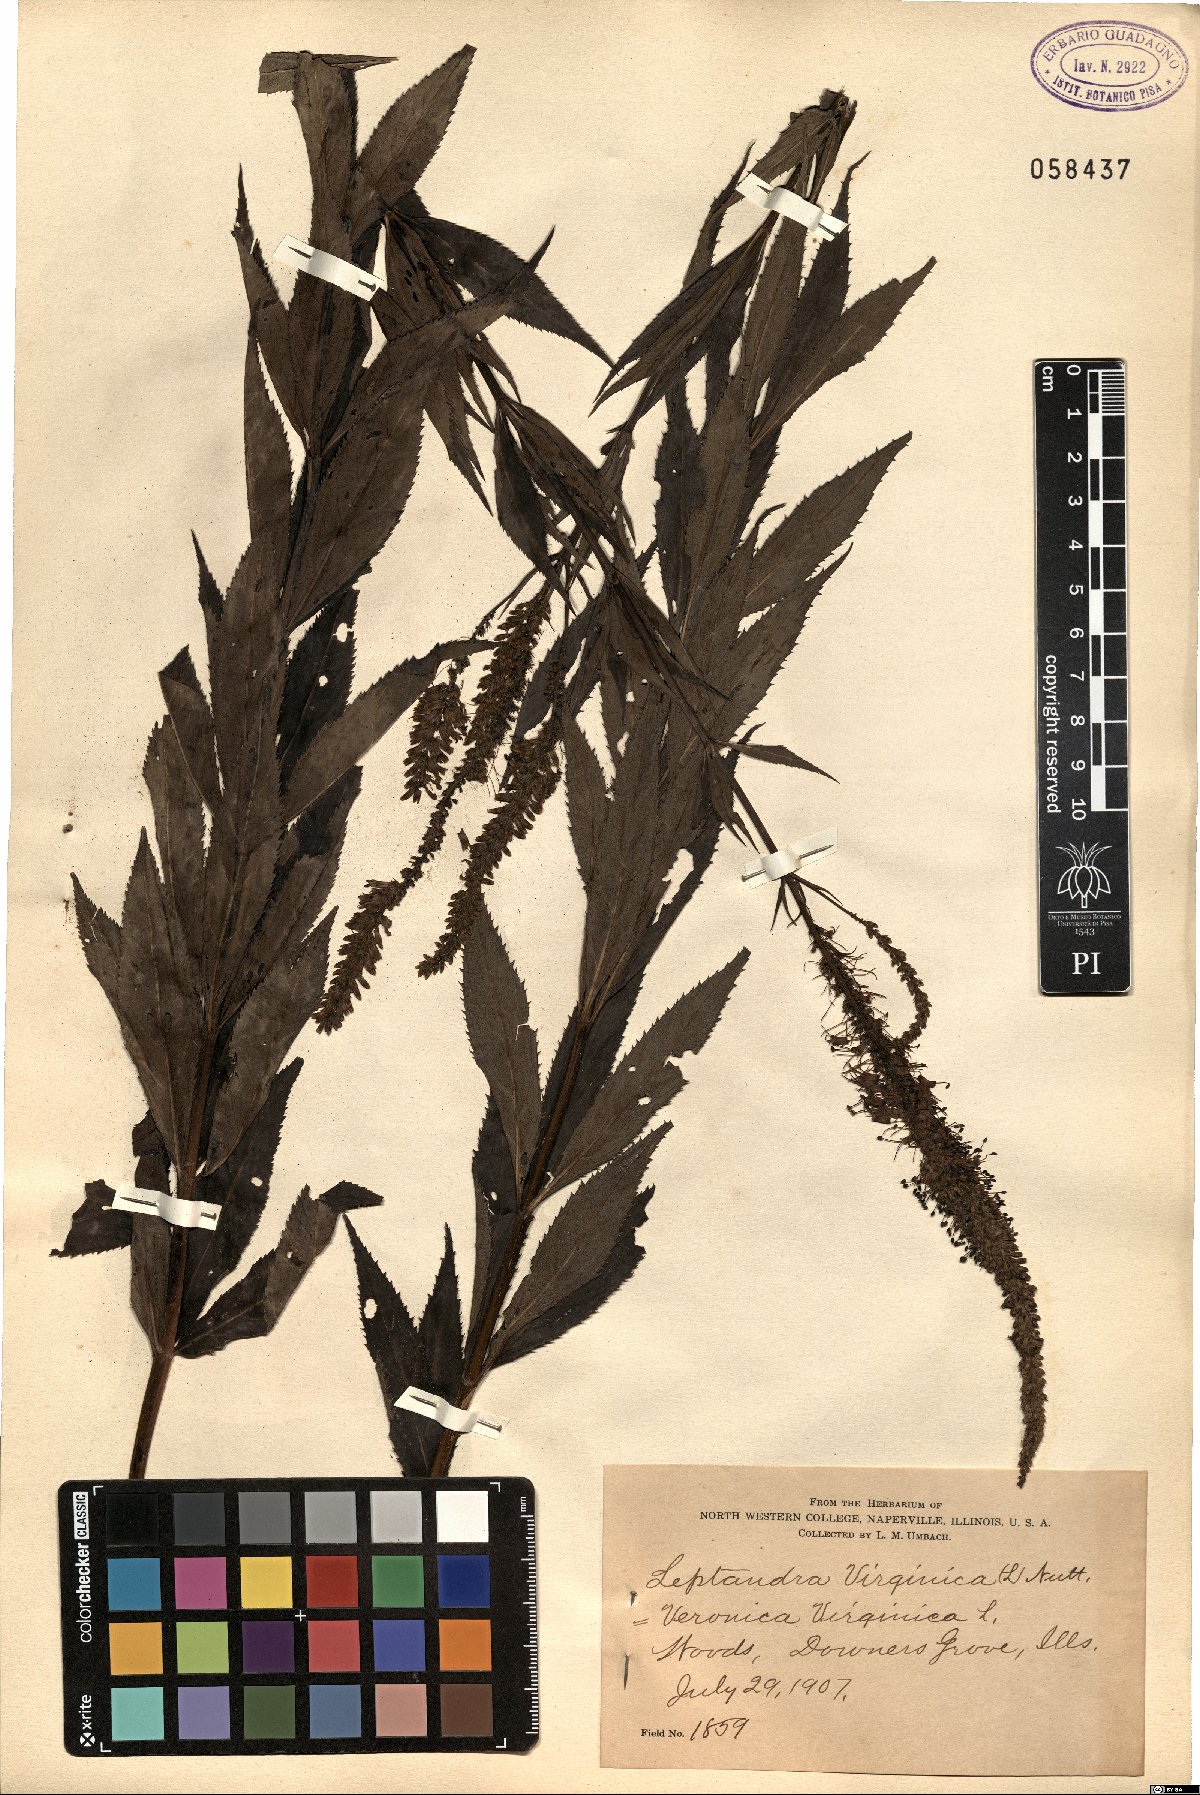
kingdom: Plantae
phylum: Tracheophyta
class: Magnoliopsida
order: Lamiales
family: Plantaginaceae
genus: Veronicastrum
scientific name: Veronicastrum virginicum
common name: Blackroot
